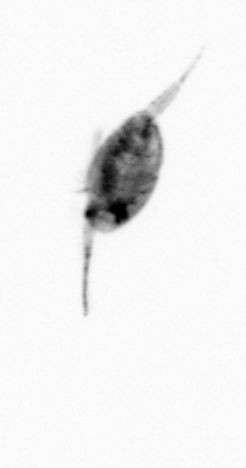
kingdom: Animalia
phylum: Arthropoda
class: Copepoda
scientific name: Copepoda
